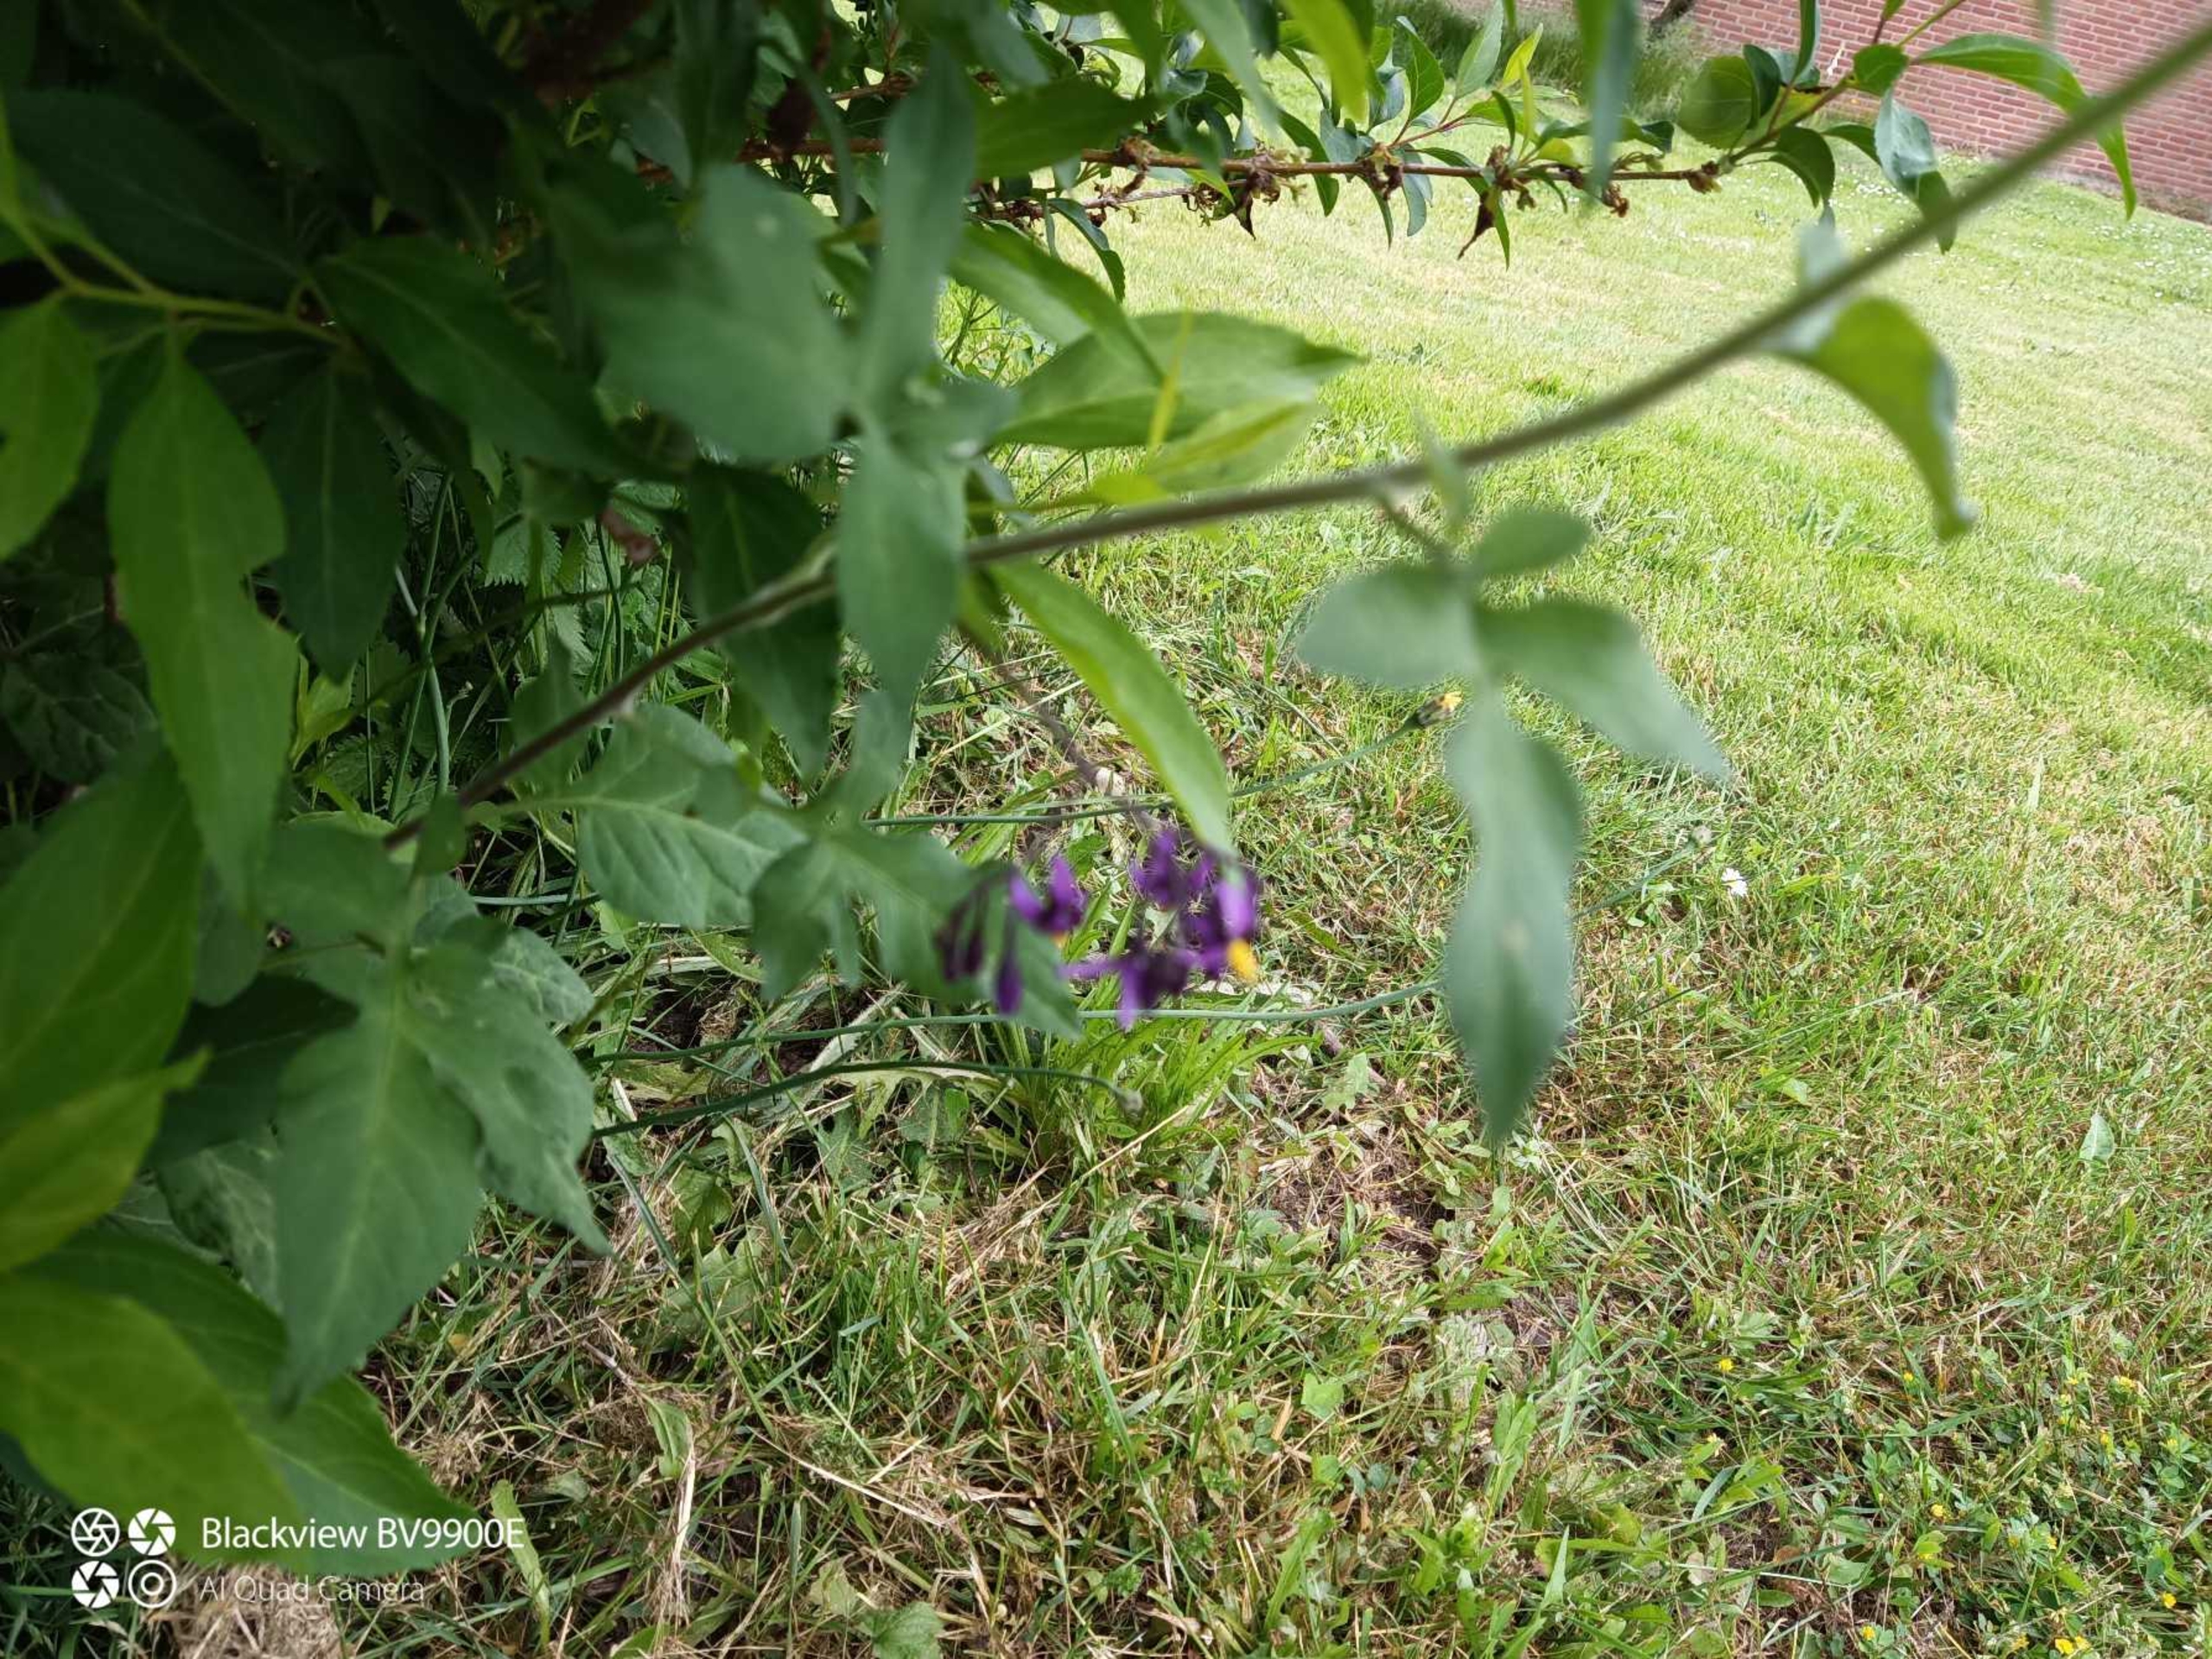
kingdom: Plantae
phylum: Tracheophyta
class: Magnoliopsida
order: Solanales
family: Solanaceae
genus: Solanum
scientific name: Solanum dulcamara
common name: Bittersød natskygge
